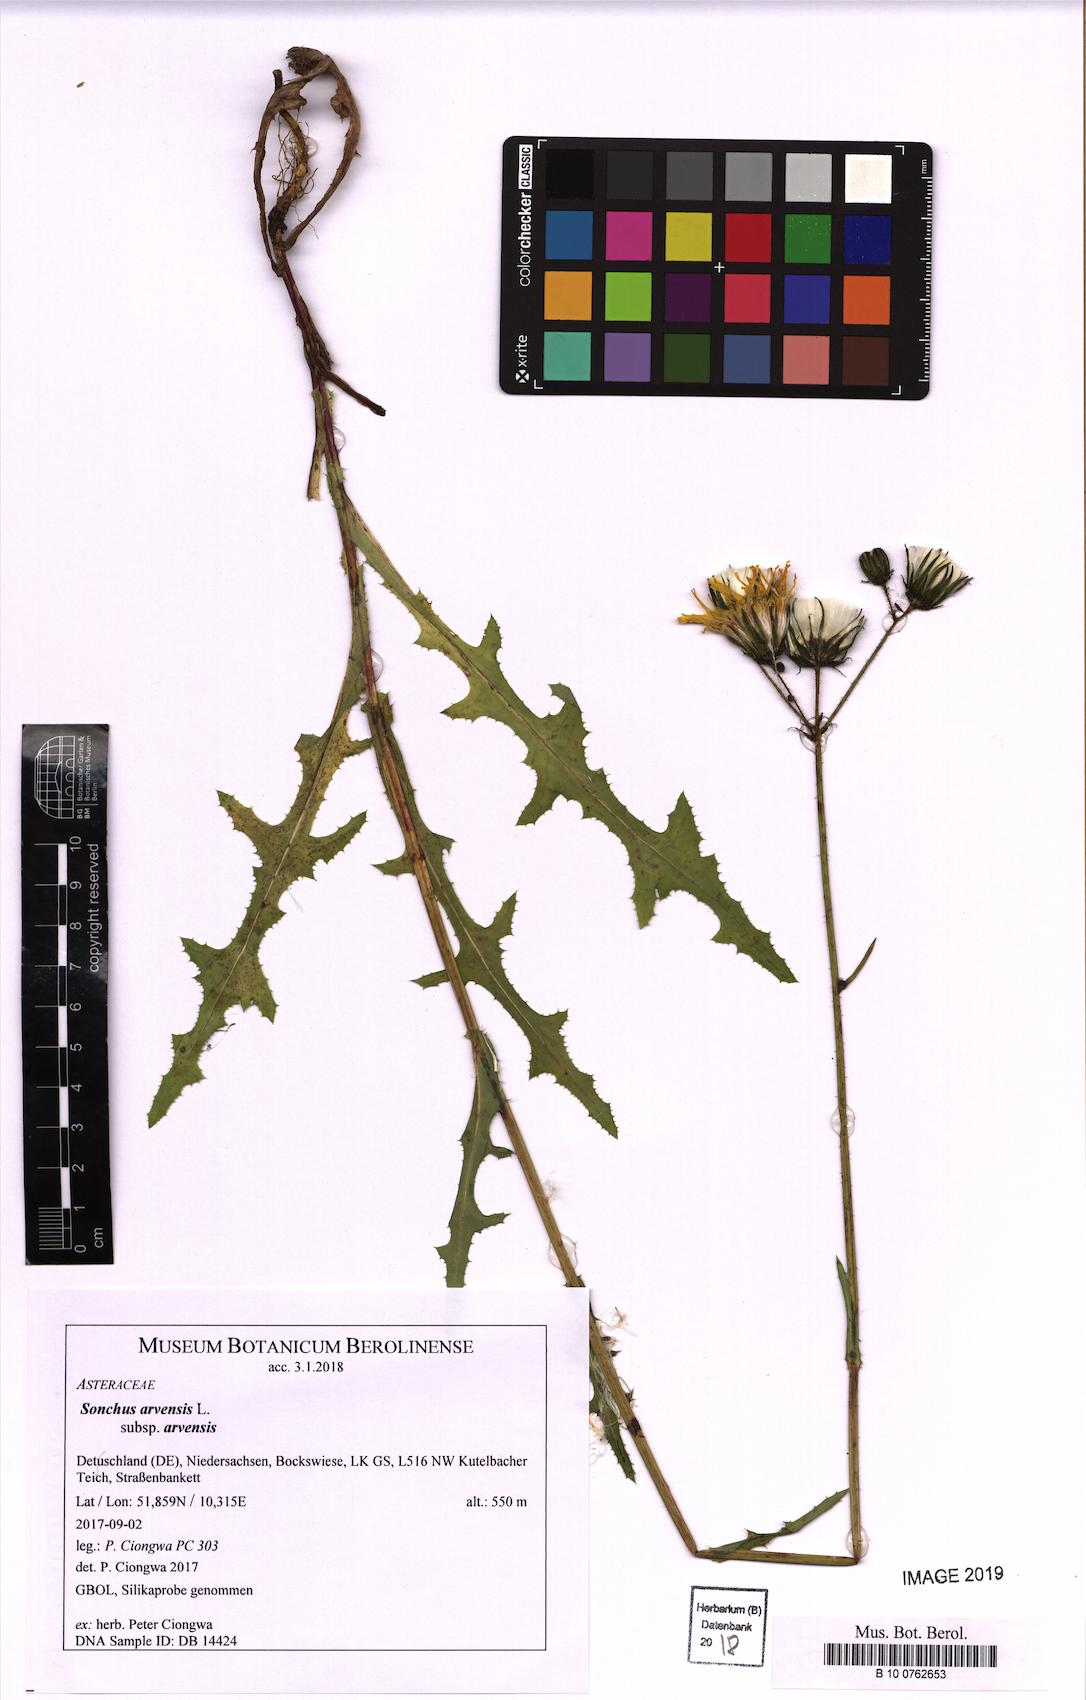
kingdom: Plantae
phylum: Tracheophyta
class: Magnoliopsida
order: Asterales
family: Asteraceae
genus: Sonchus
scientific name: Sonchus arvensis
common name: Perennial sow-thistle
